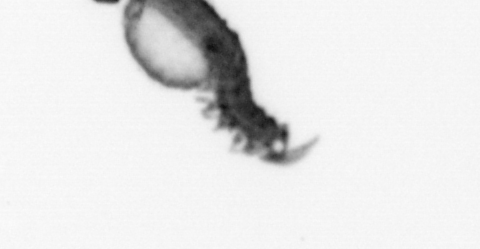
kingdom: Animalia
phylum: Annelida
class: Polychaeta
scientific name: Polychaeta
